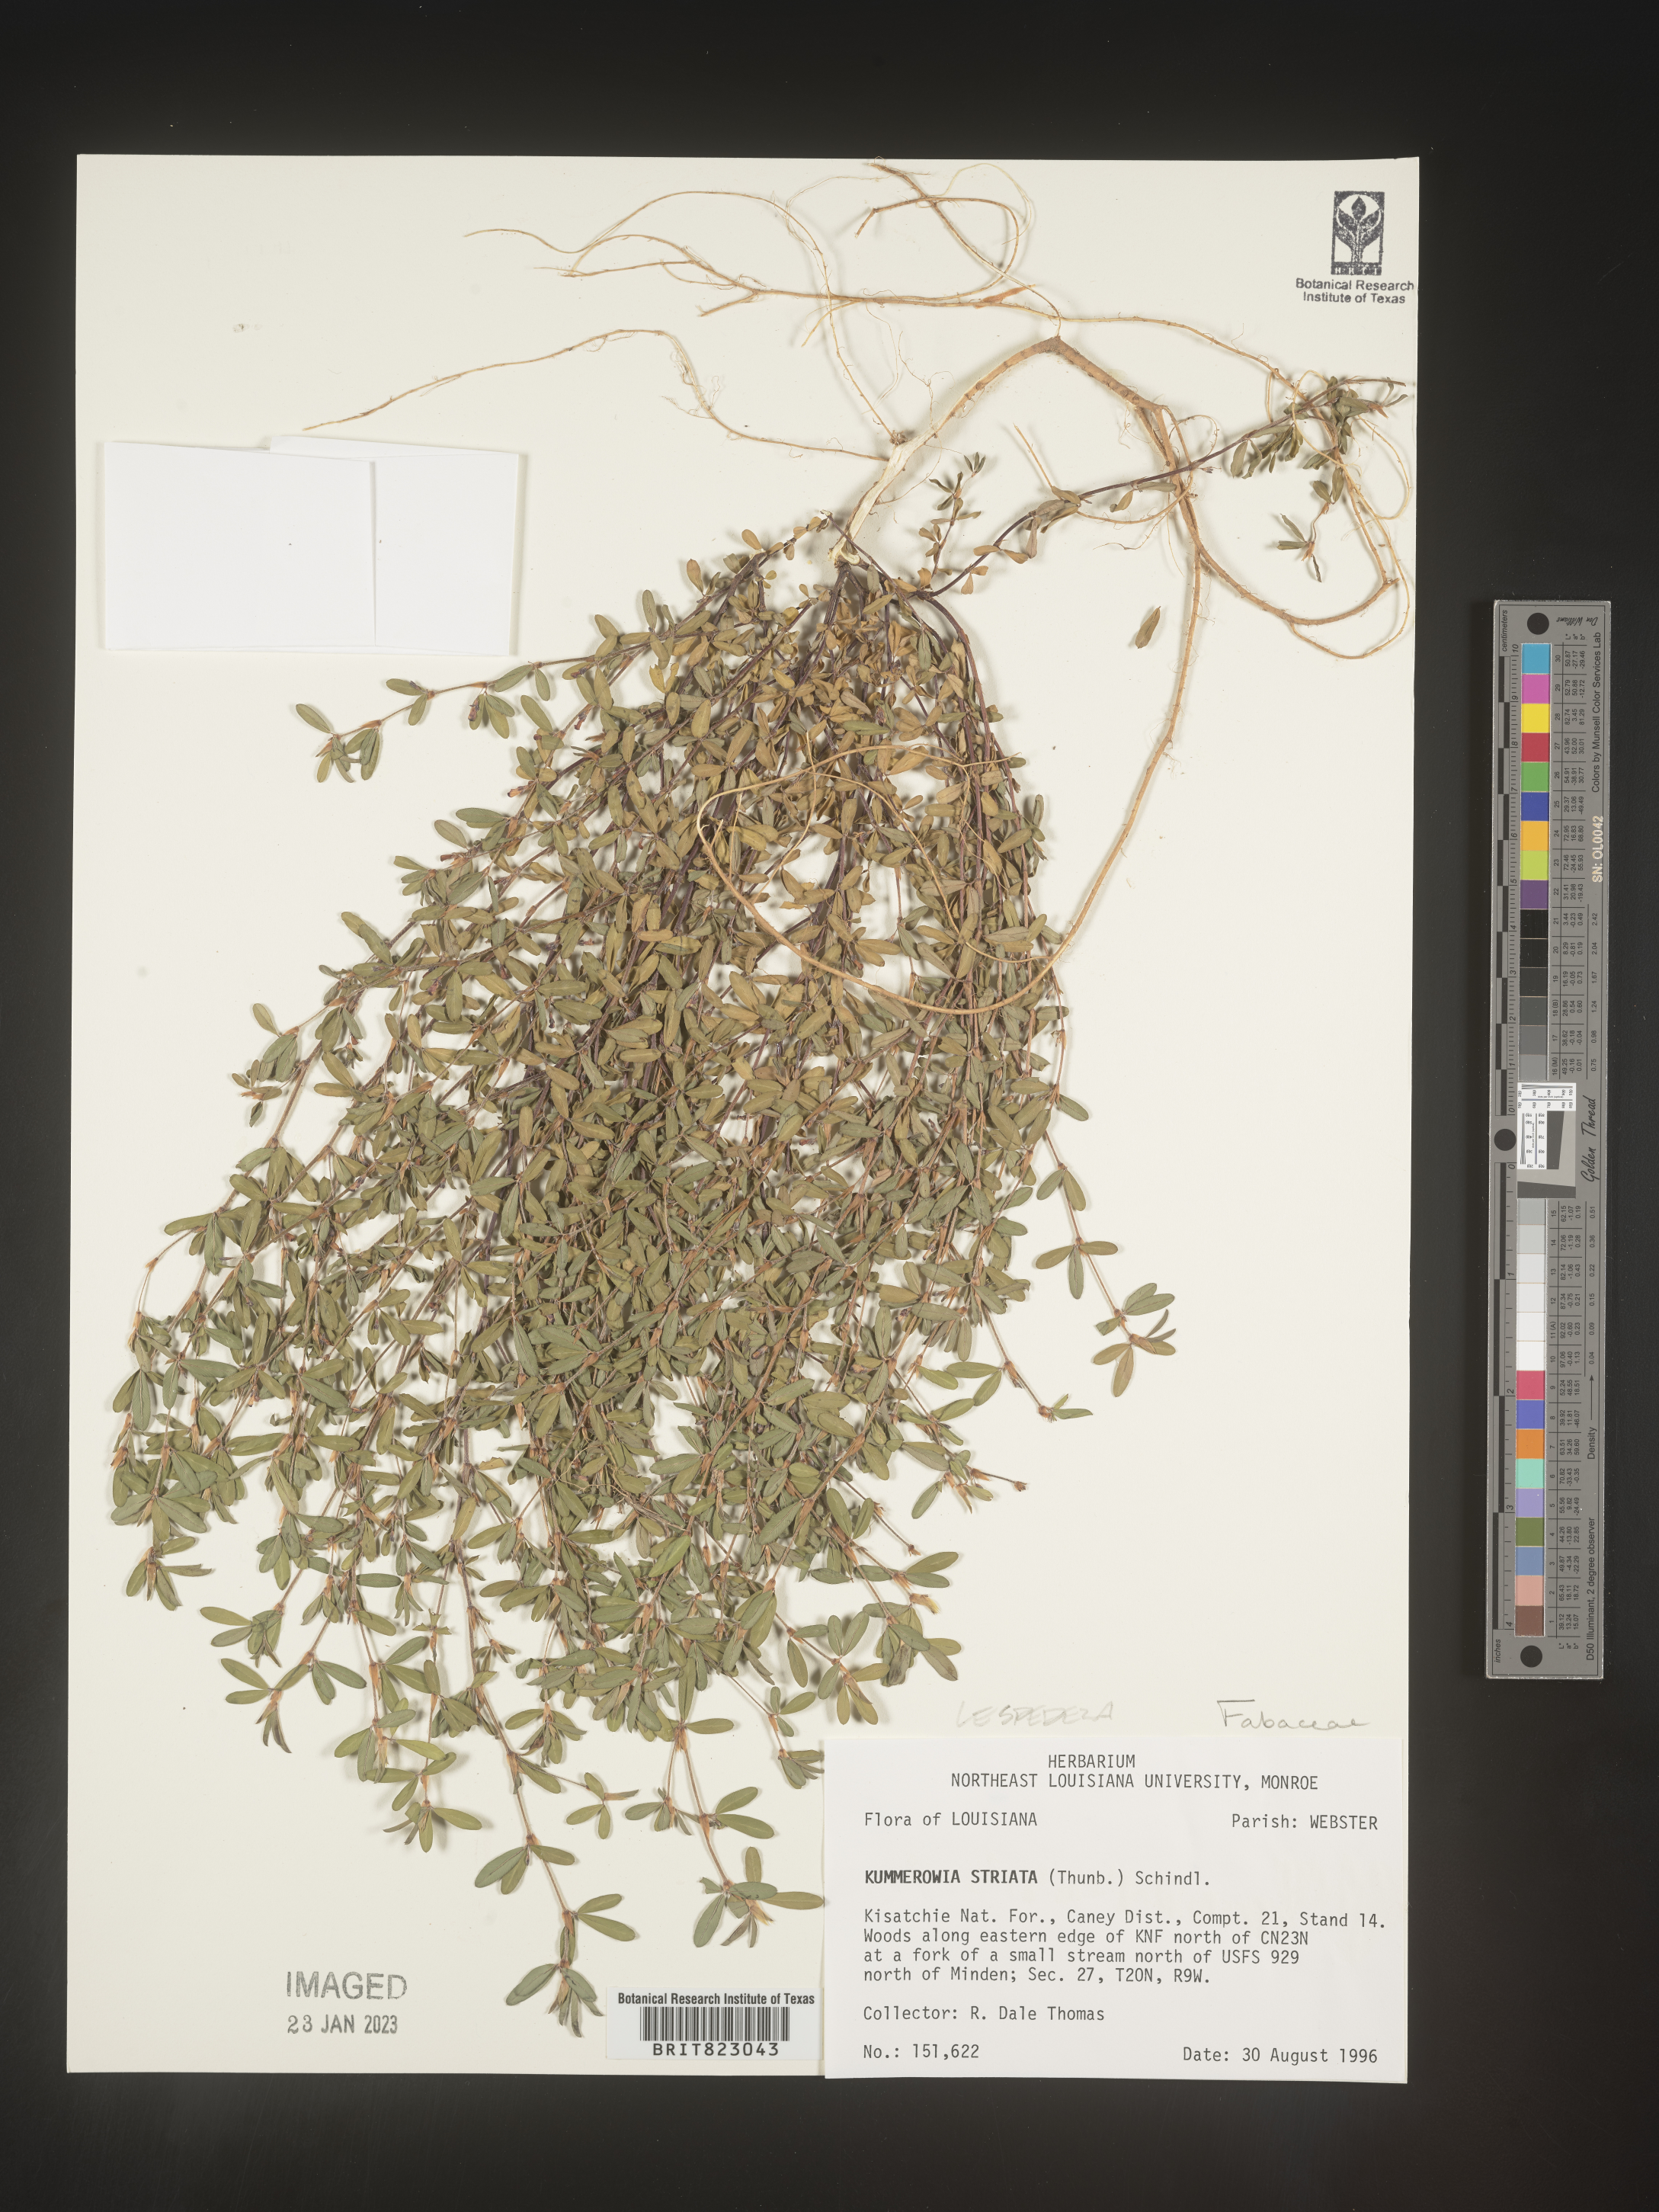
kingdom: Plantae
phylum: Tracheophyta
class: Magnoliopsida
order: Fabales
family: Fabaceae
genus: Kummerowia
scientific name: Kummerowia striata
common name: Japanese clover
